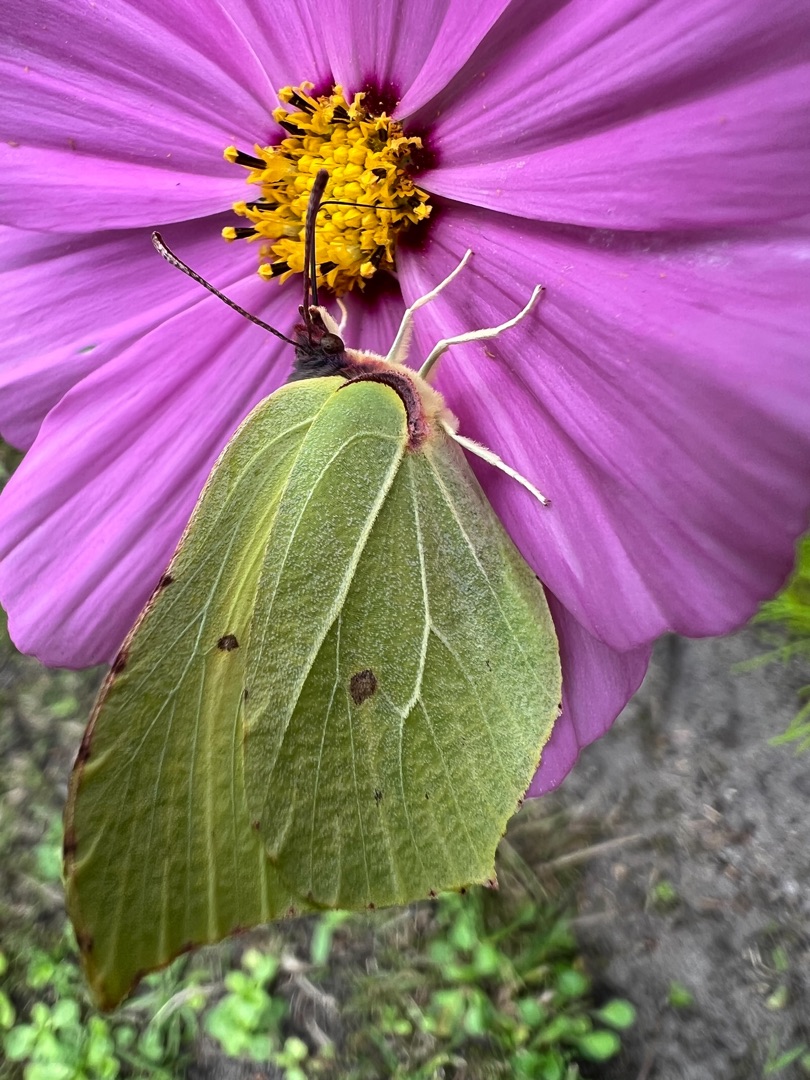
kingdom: Animalia
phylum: Arthropoda
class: Insecta
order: Lepidoptera
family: Pieridae
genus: Gonepteryx
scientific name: Gonepteryx rhamni
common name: Citronsommerfugl
